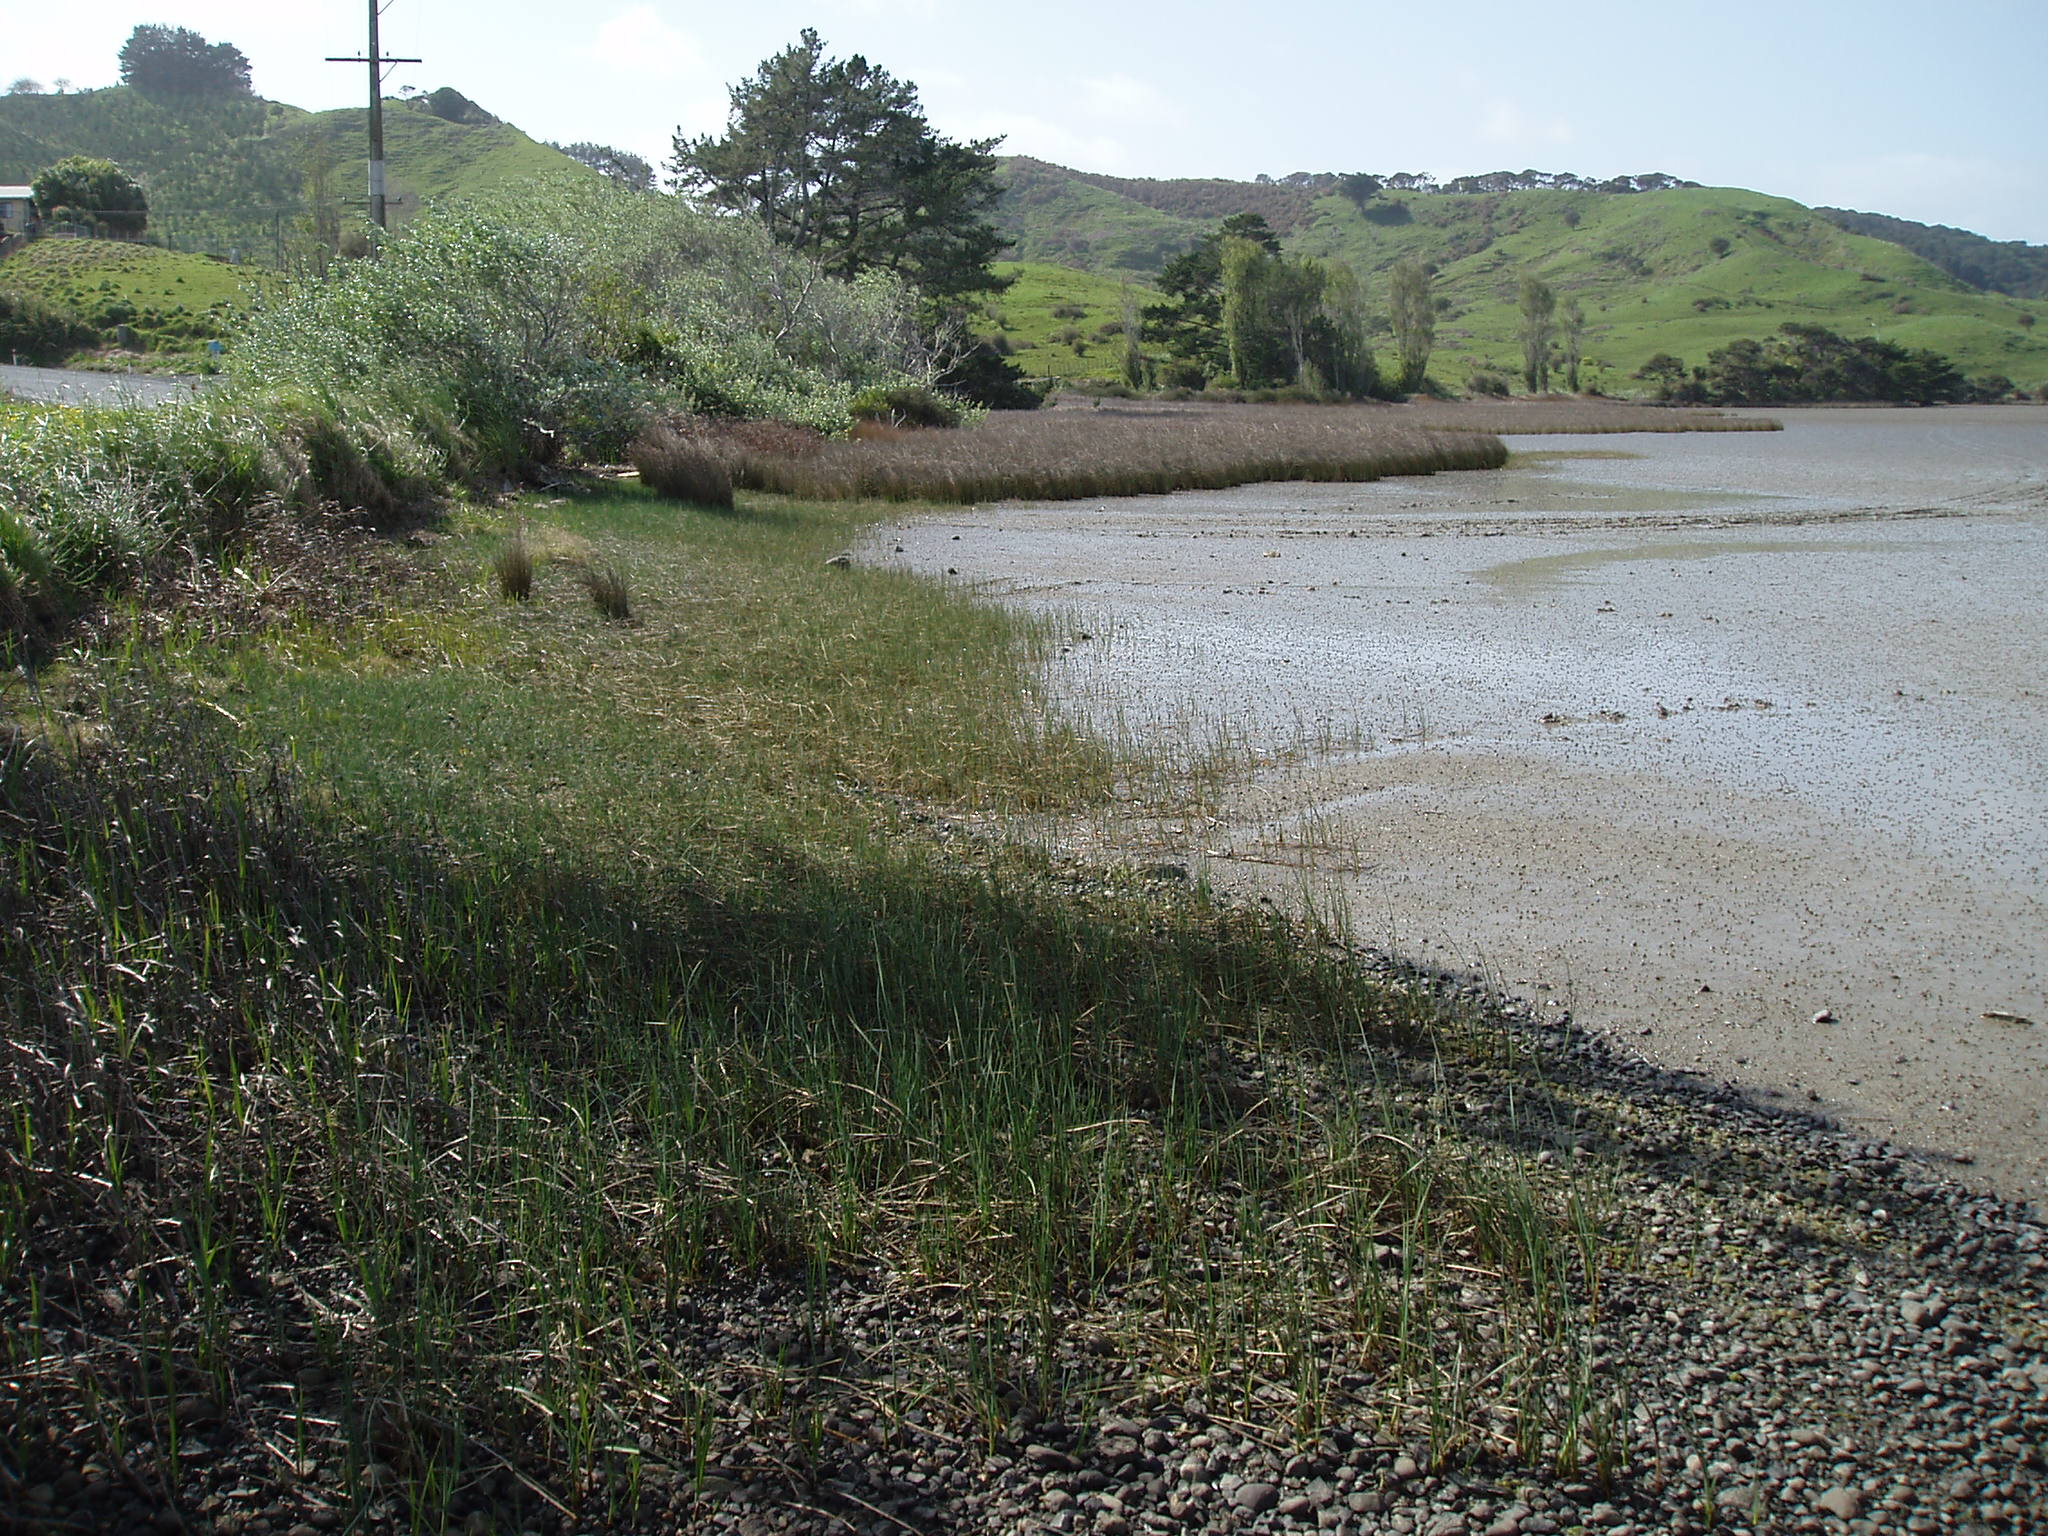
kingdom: Plantae
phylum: Tracheophyta
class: Liliopsida
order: Poales
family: Cyperaceae
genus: Schoenoplectus
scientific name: Schoenoplectus pungens
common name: Sharp club-rush
